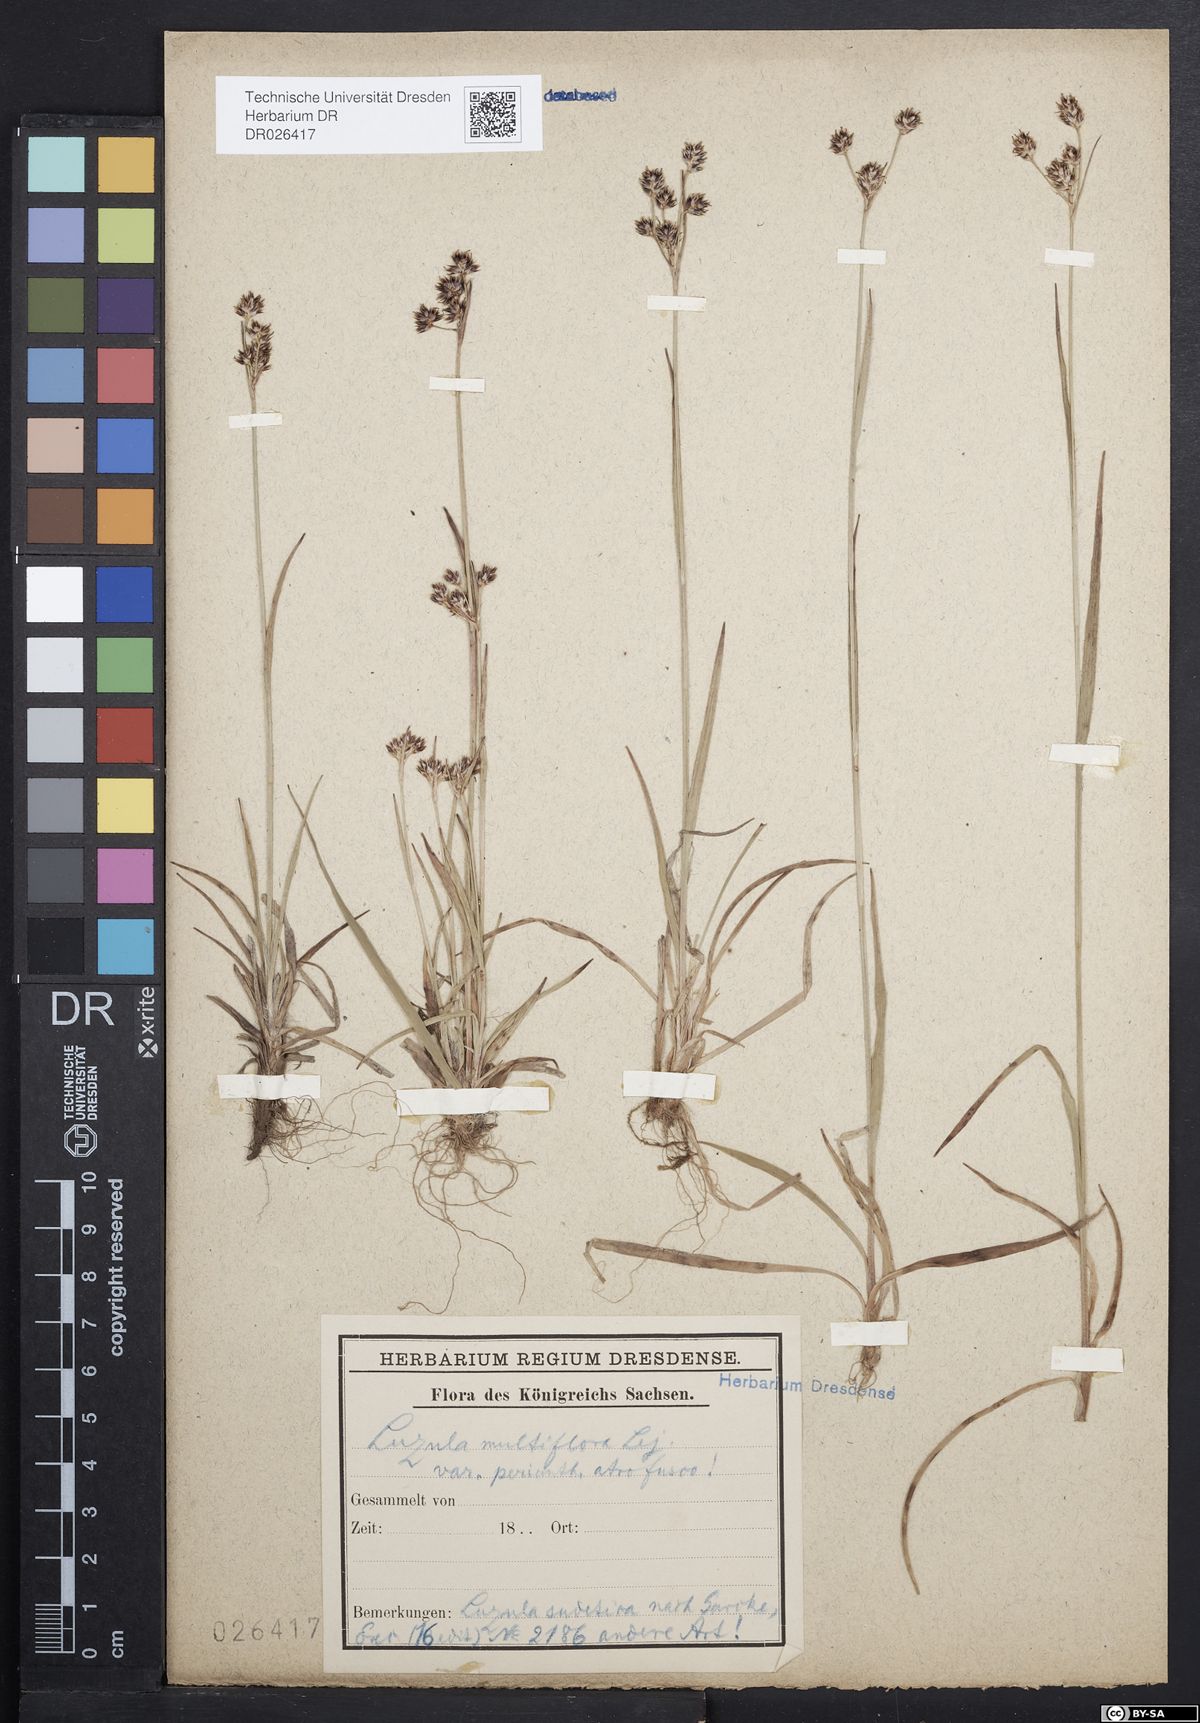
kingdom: Plantae
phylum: Tracheophyta
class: Liliopsida
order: Poales
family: Juncaceae
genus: Luzula
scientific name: Luzula multiflora
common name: Heath wood-rush
